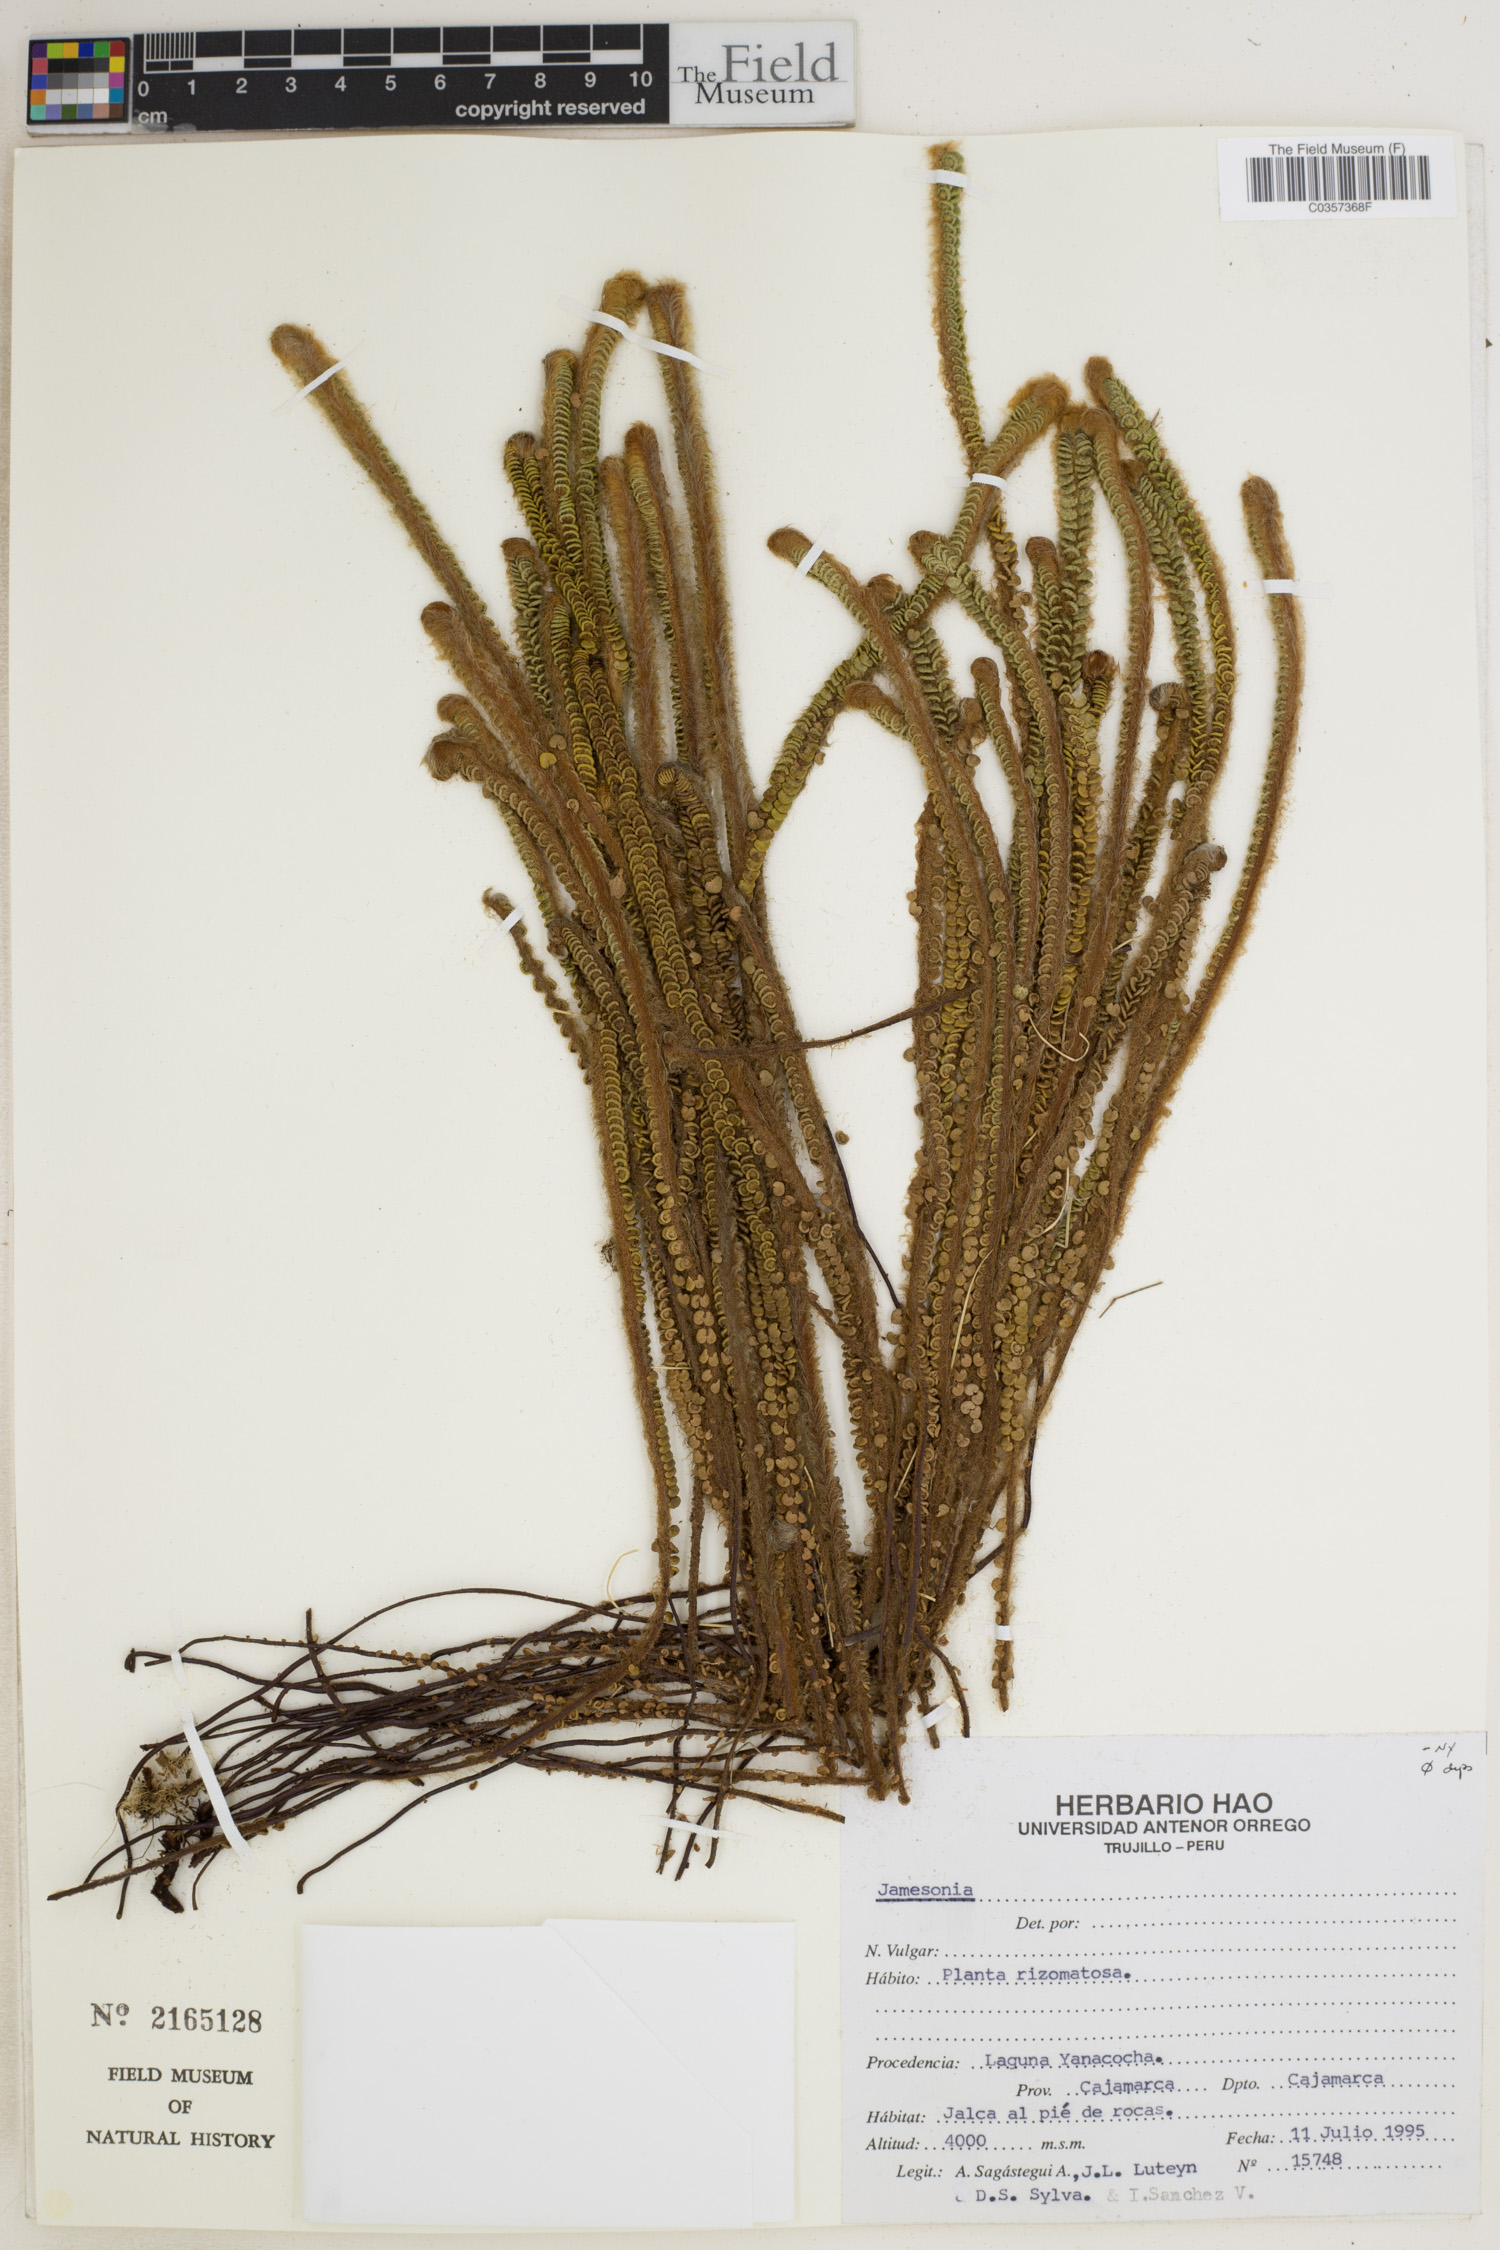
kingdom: Plantae
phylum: Tracheophyta
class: Polypodiopsida
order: Polypodiales
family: Pteridaceae
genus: Jamesonia
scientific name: Jamesonia
